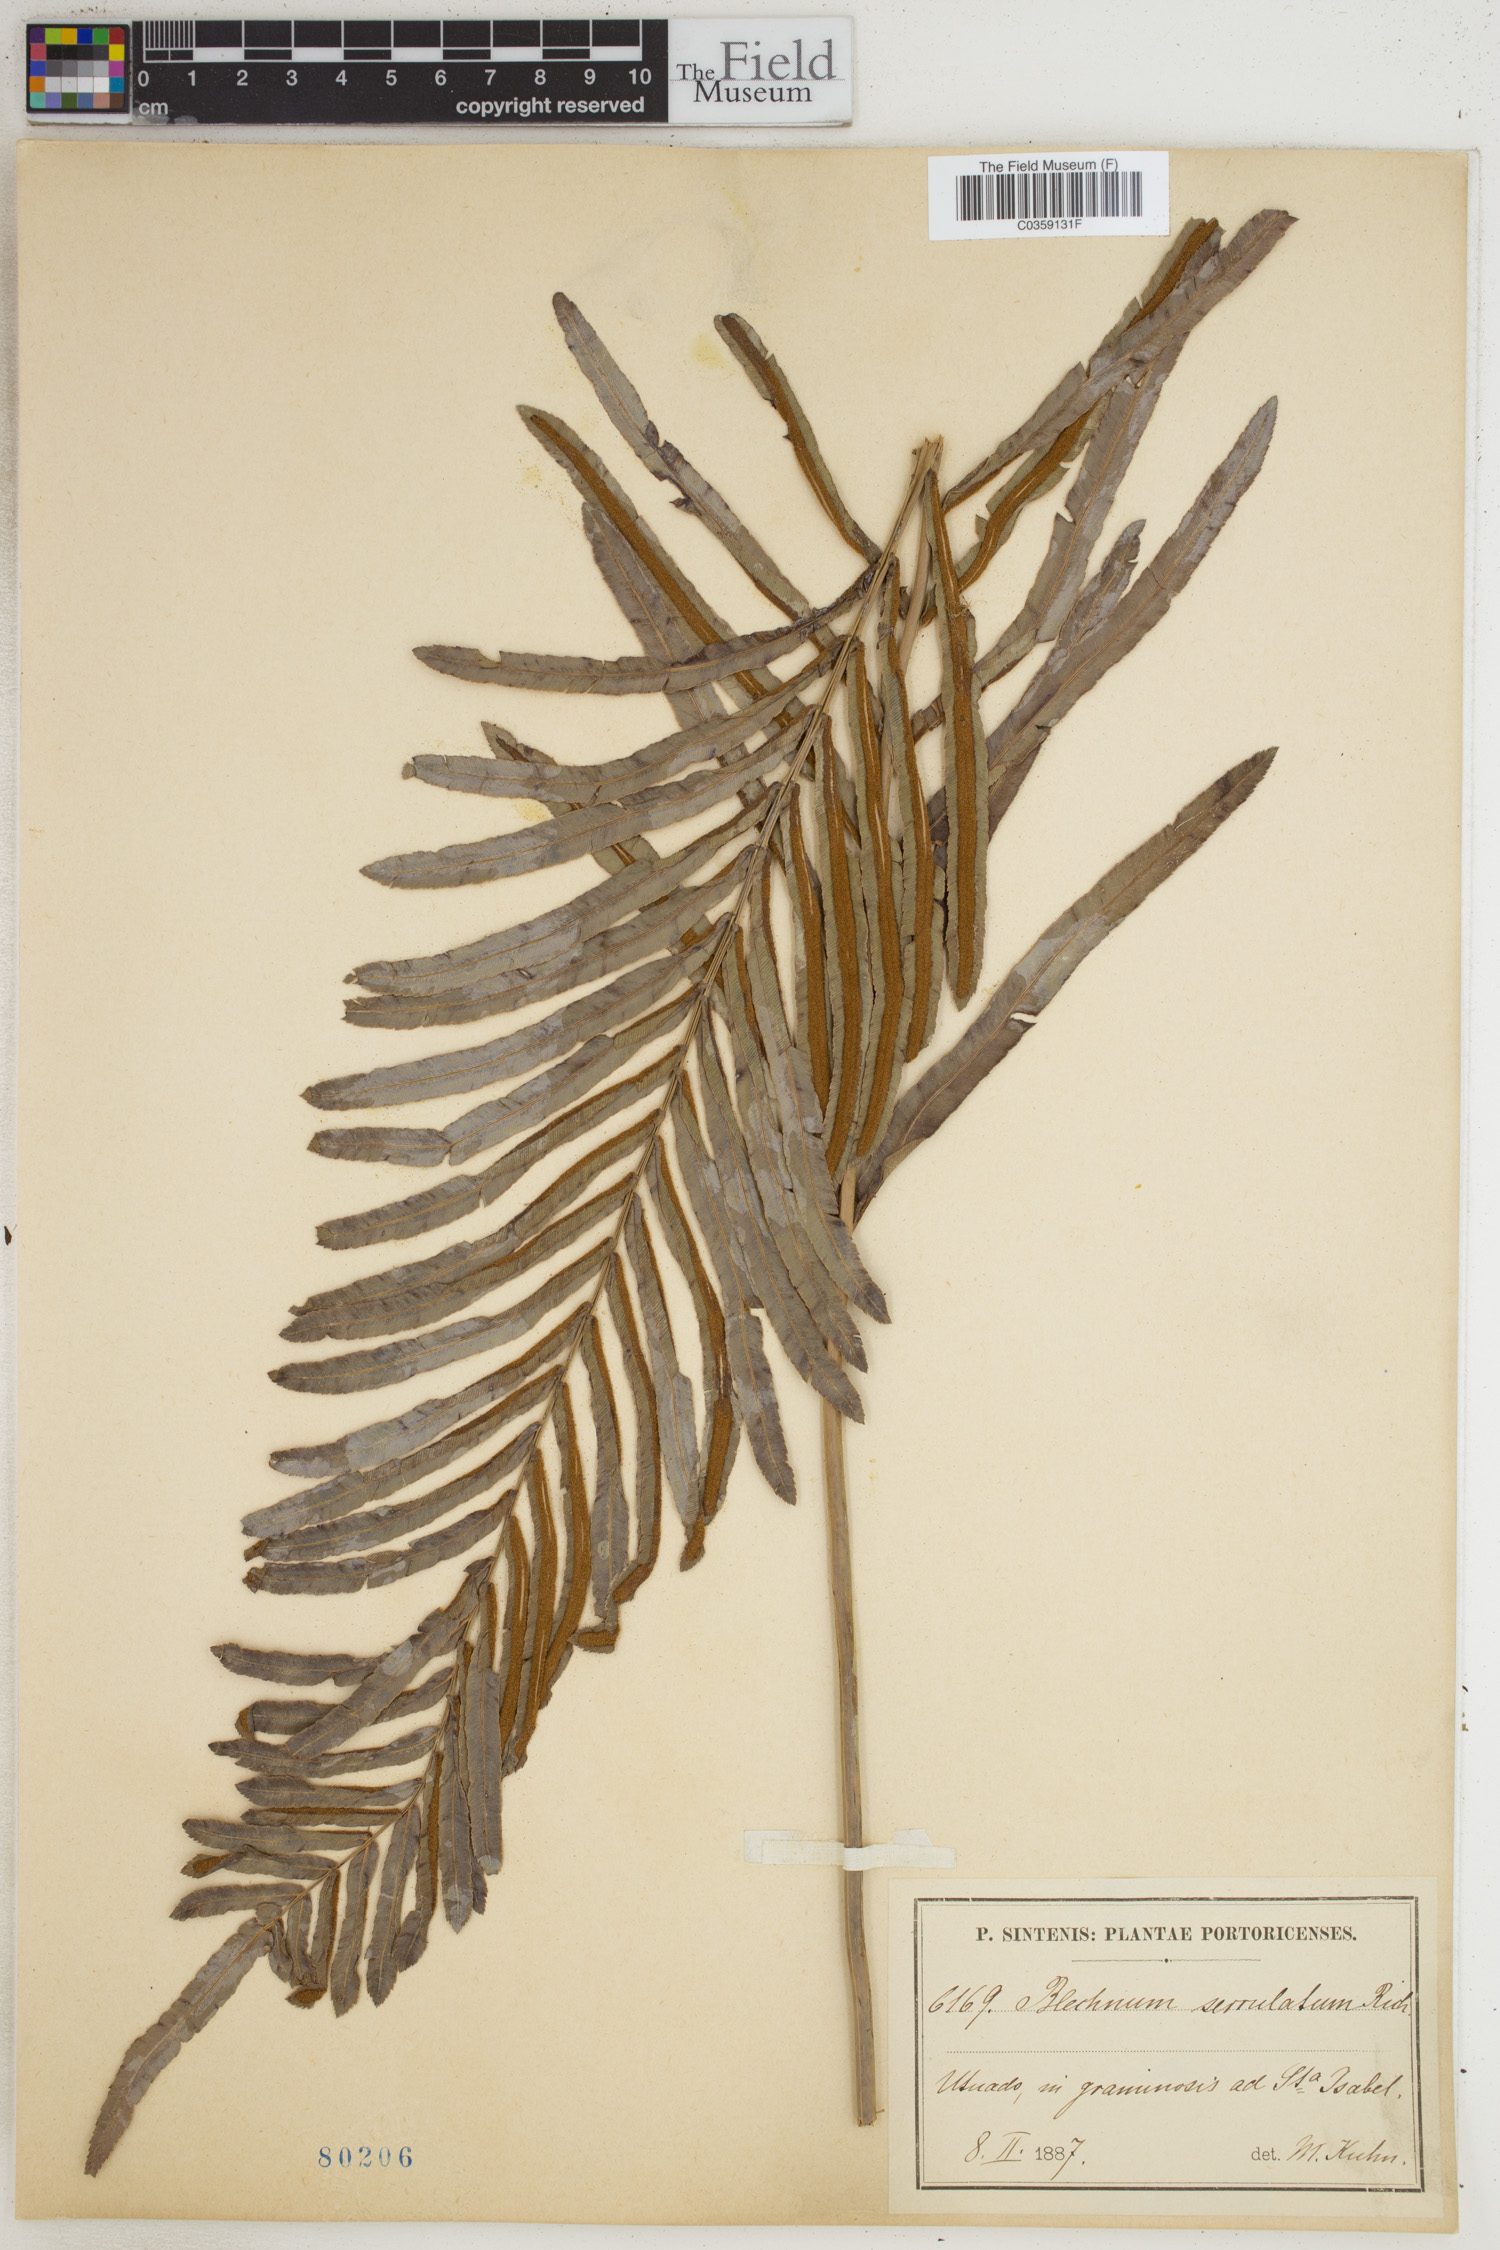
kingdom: Plantae
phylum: Tracheophyta
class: Polypodiopsida
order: Polypodiales
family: Blechnaceae
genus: Telmatoblechnum
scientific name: Telmatoblechnum serrulatum
